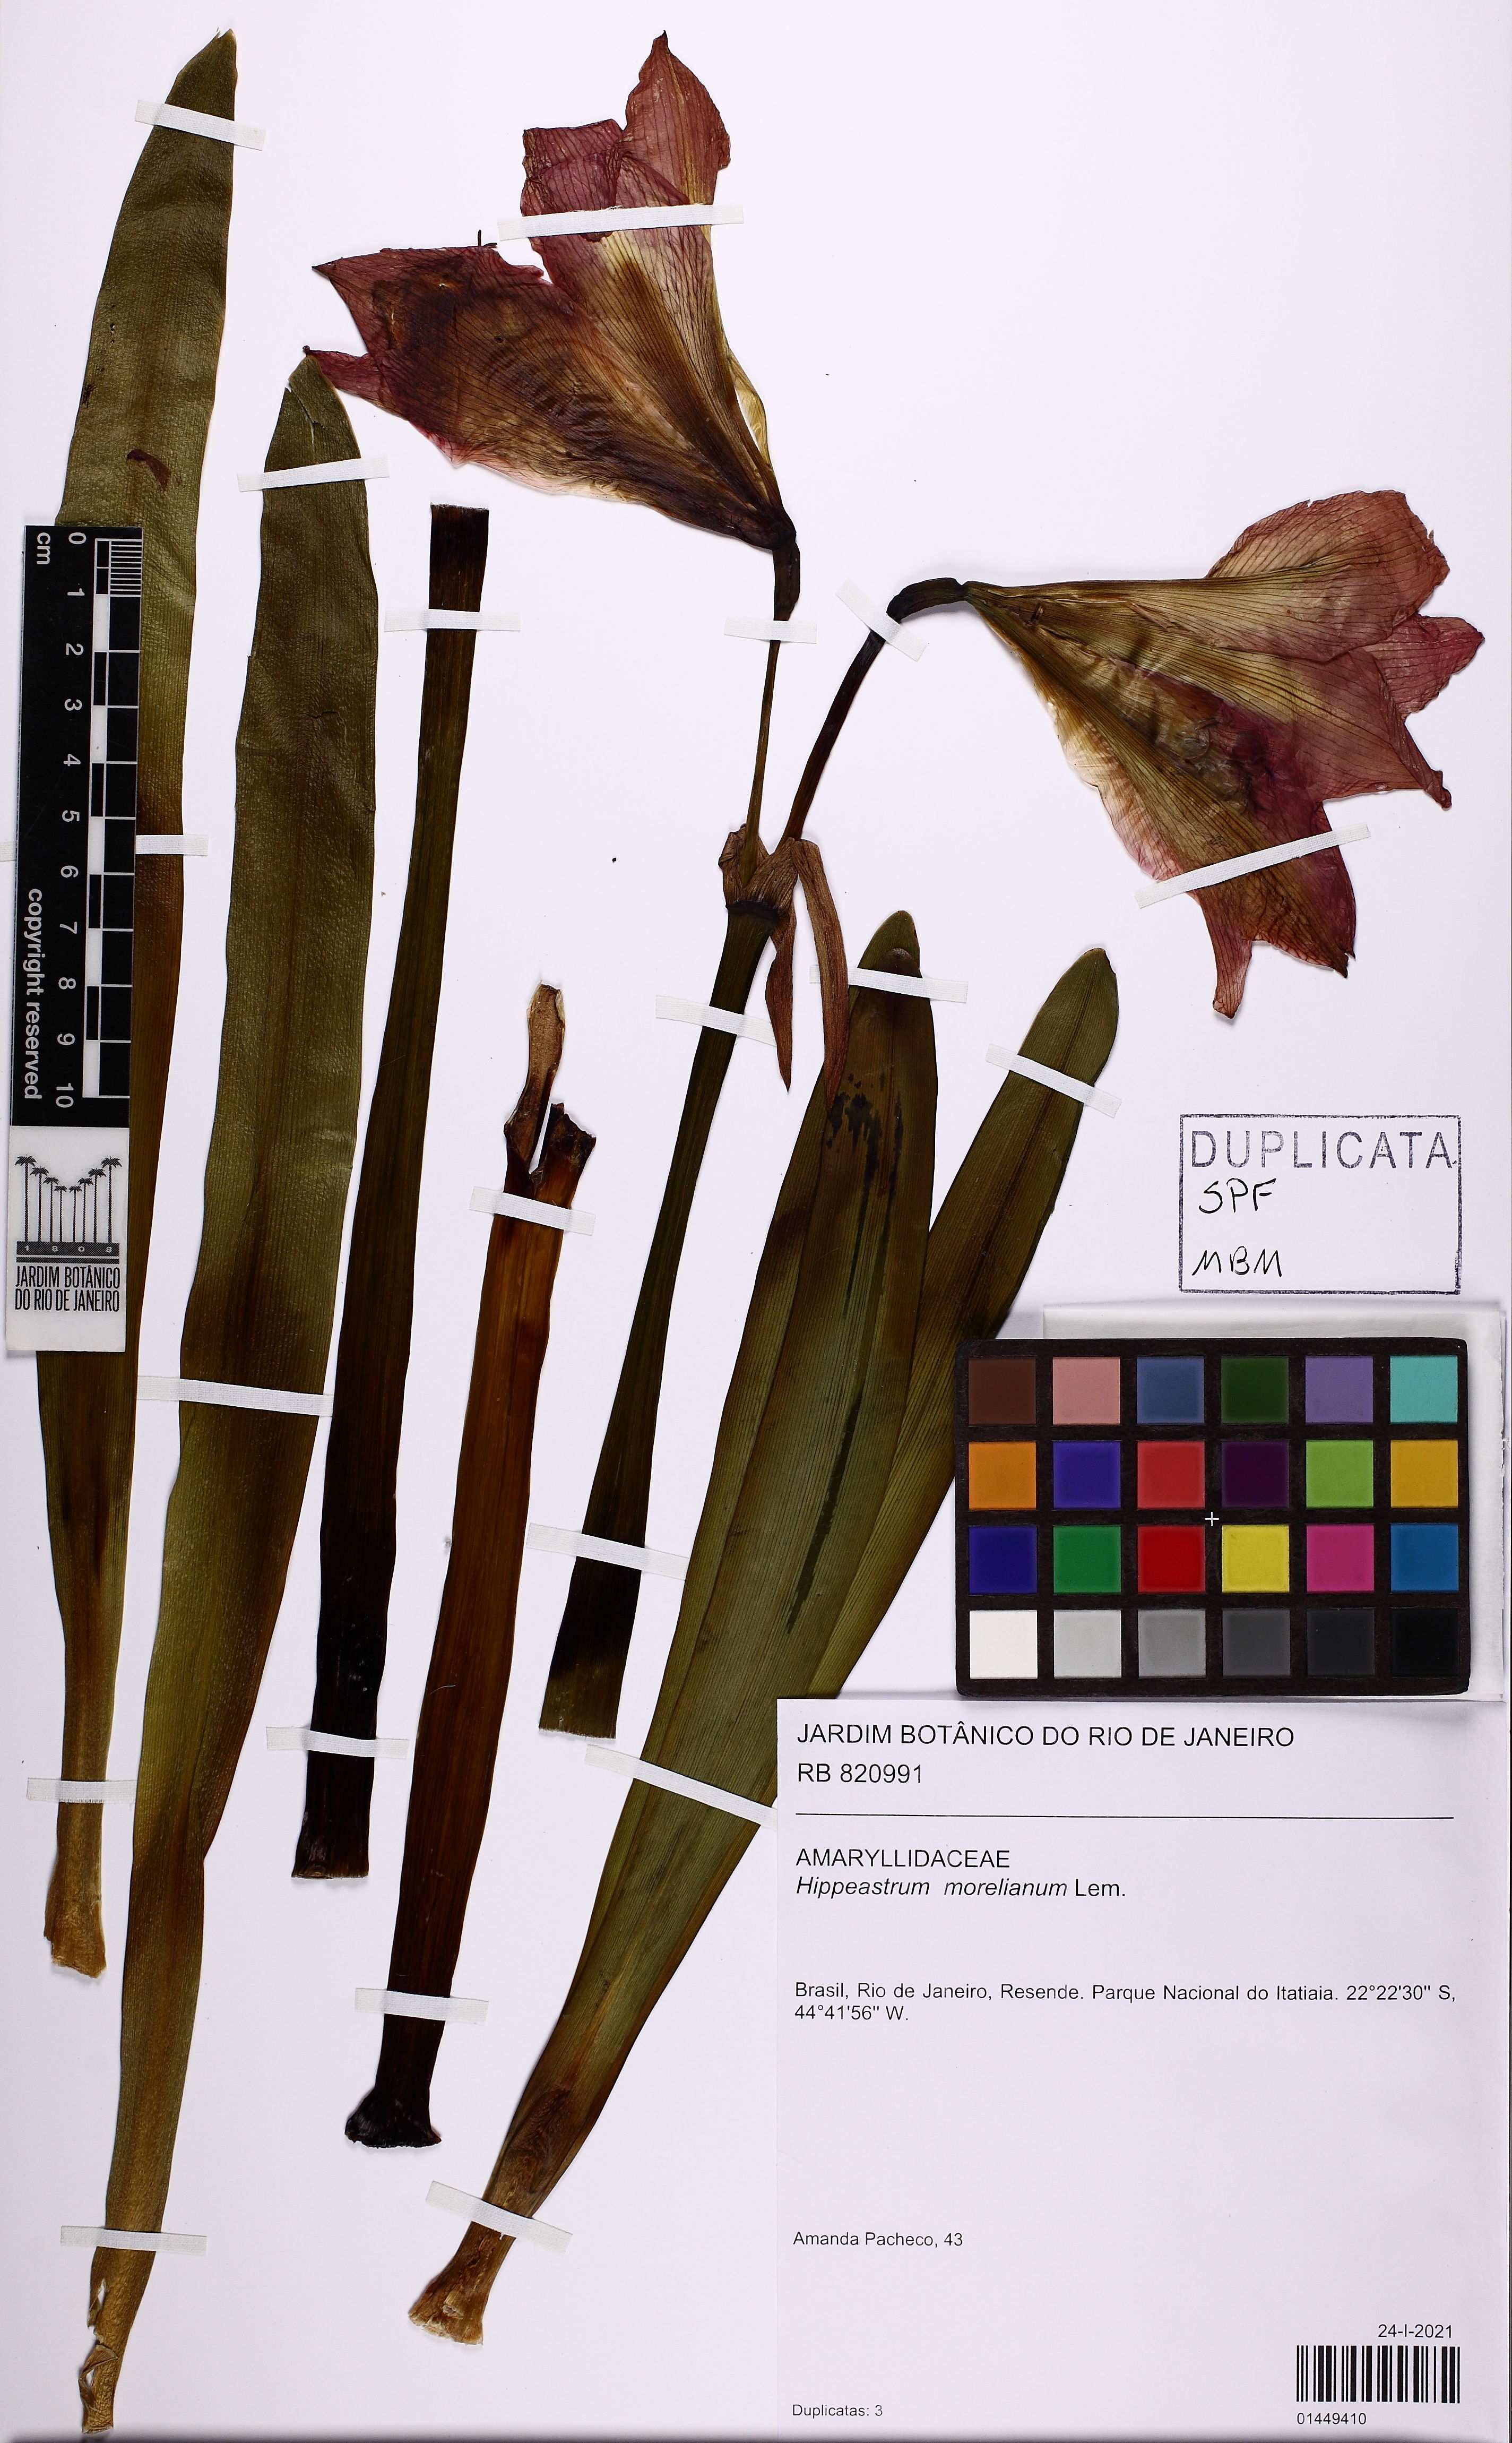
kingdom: Plantae
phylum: Tracheophyta
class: Liliopsida
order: Asparagales
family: Amaryllidaceae
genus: Hippeastrum
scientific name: Hippeastrum morelianum
